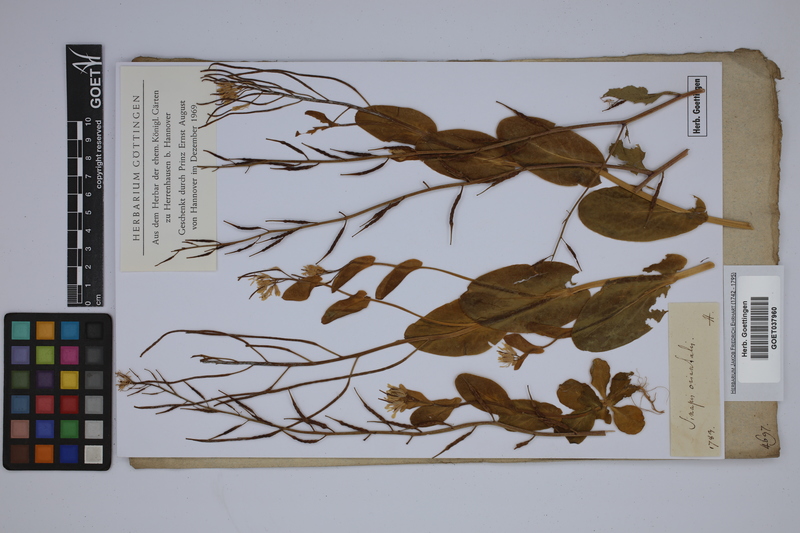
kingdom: Plantae
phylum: Tracheophyta
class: Magnoliopsida
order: Brassicales
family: Brassicaceae
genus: Sinapis
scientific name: Sinapis arvensis
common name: Charlock
